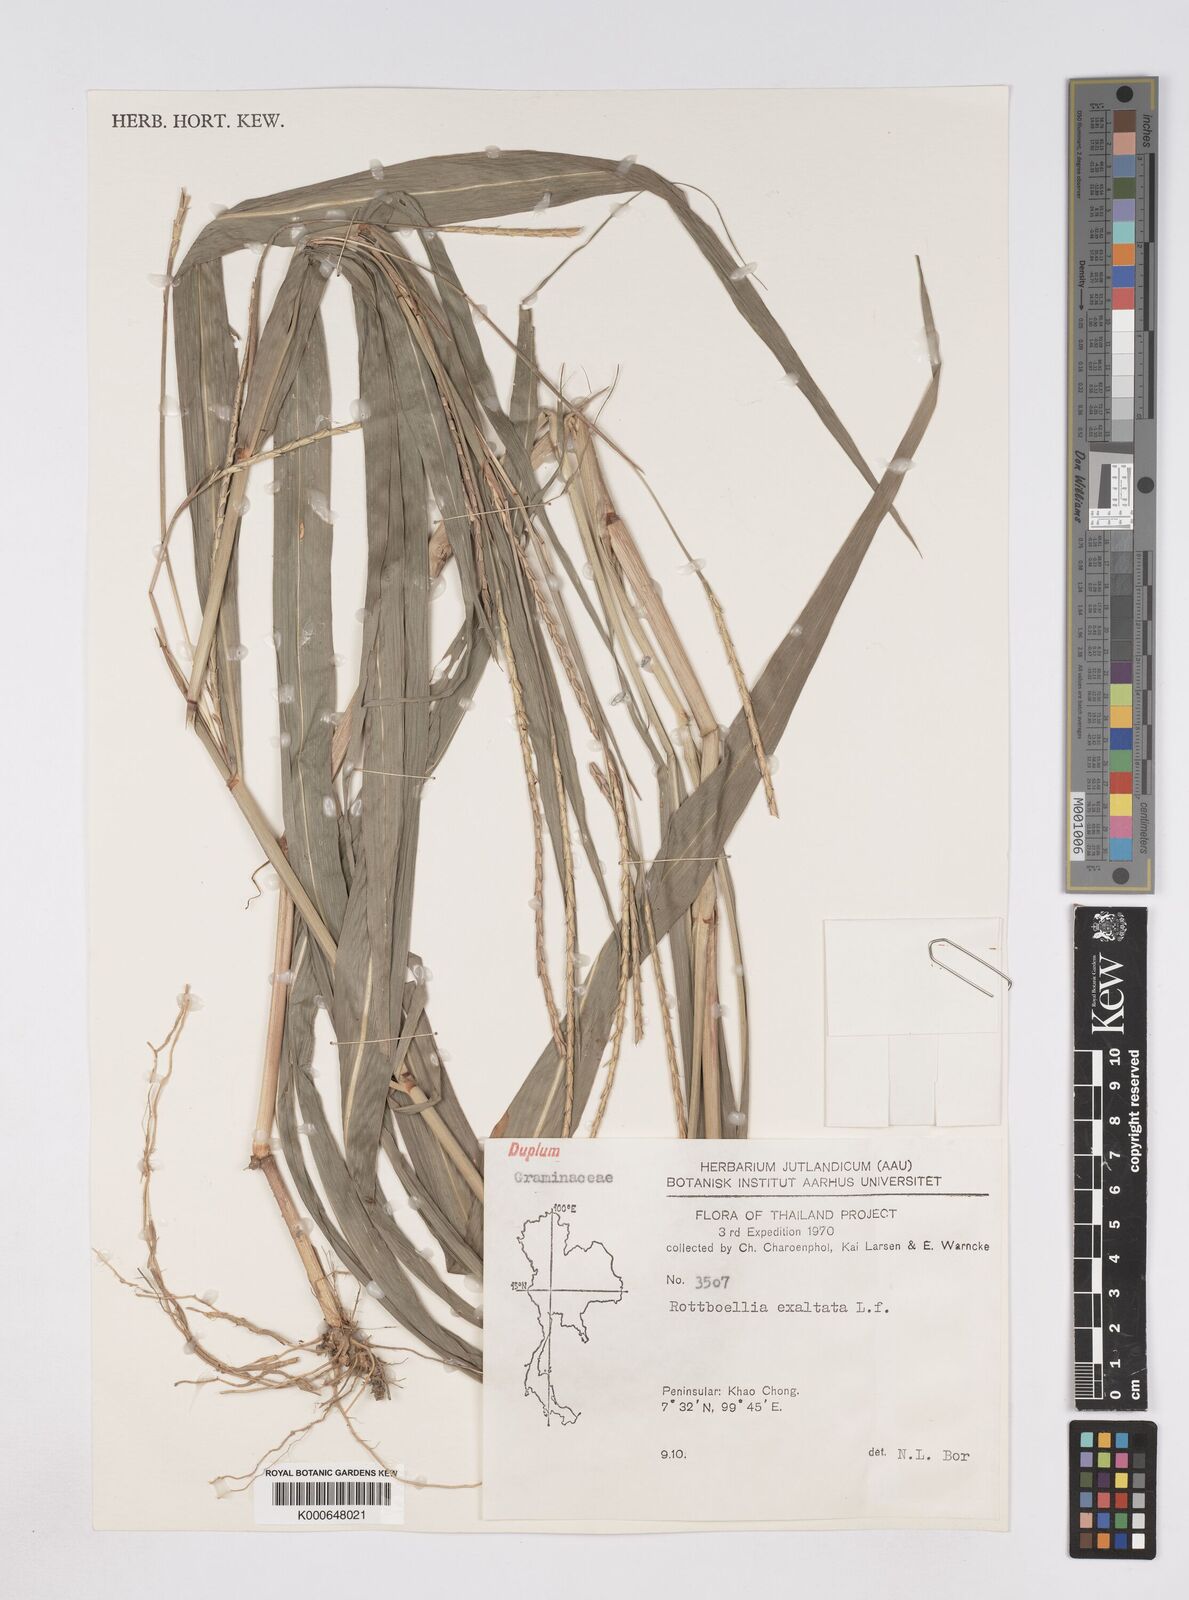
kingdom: Plantae
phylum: Tracheophyta
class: Liliopsida
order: Poales
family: Poaceae
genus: Rottboellia
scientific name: Rottboellia cochinchinensis
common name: Itchgrass
